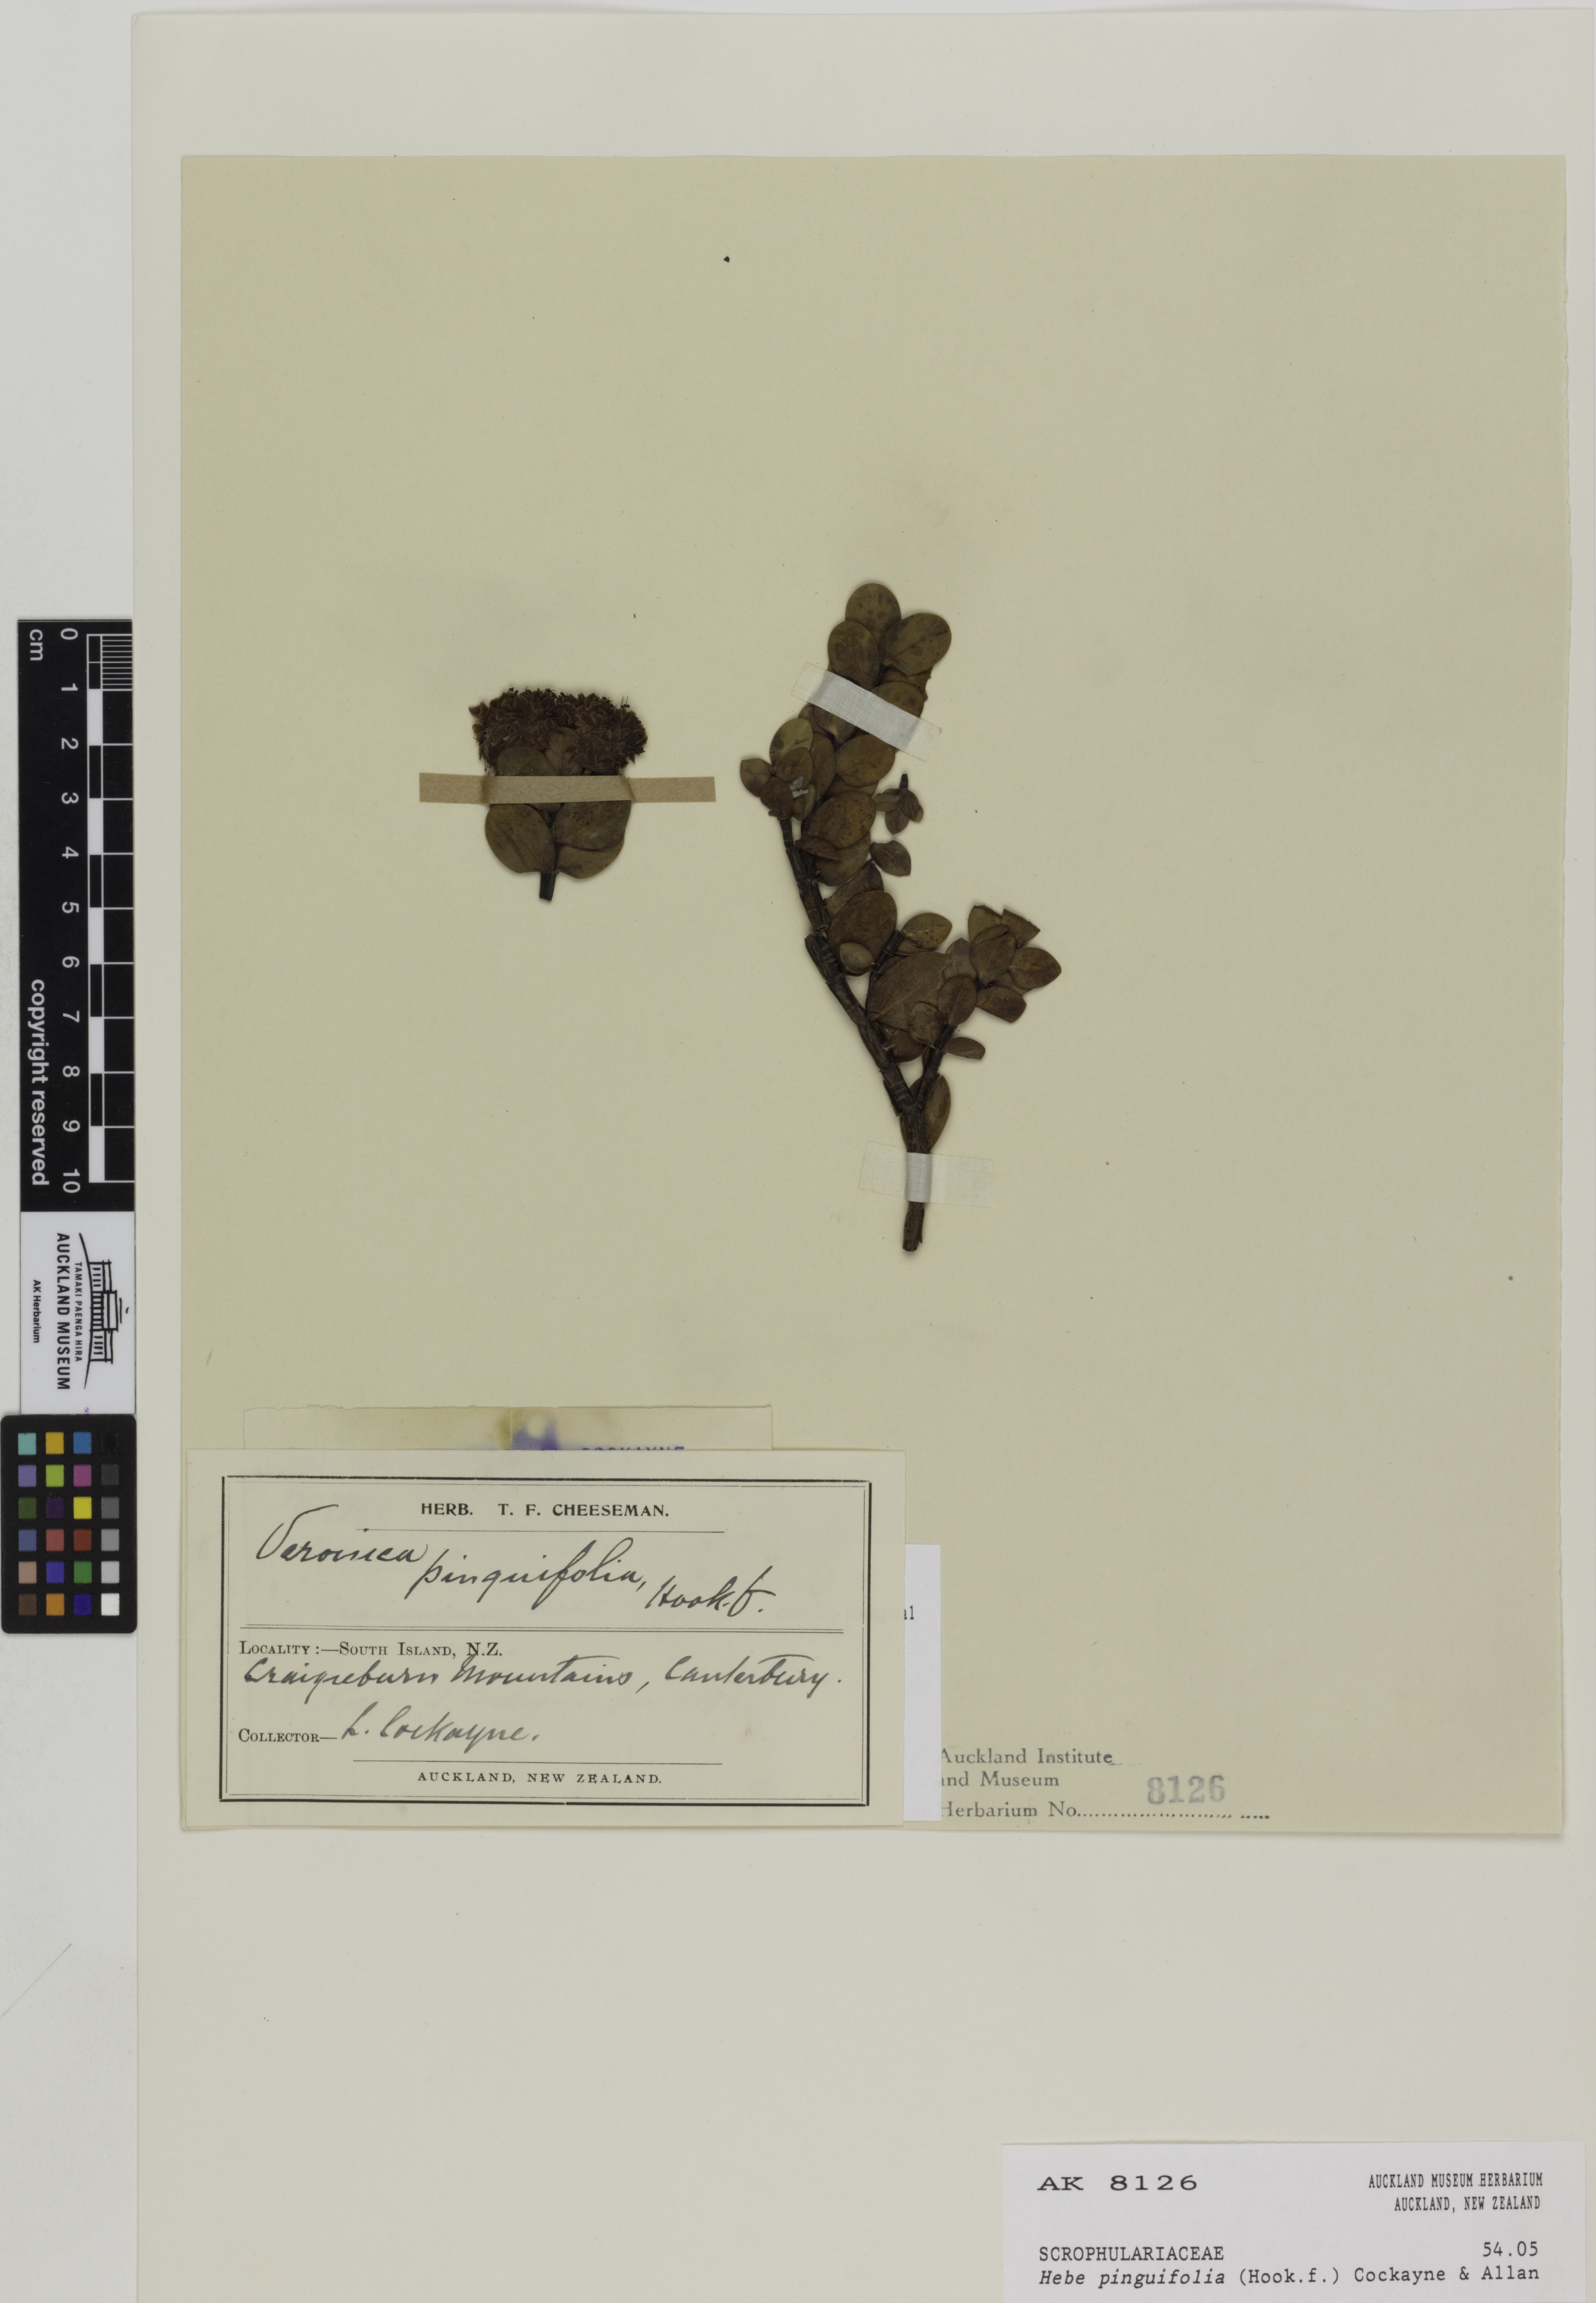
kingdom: Plantae
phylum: Tracheophyta
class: Magnoliopsida
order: Lamiales
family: Plantaginaceae
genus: Veronica
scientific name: Veronica pinguifolia
